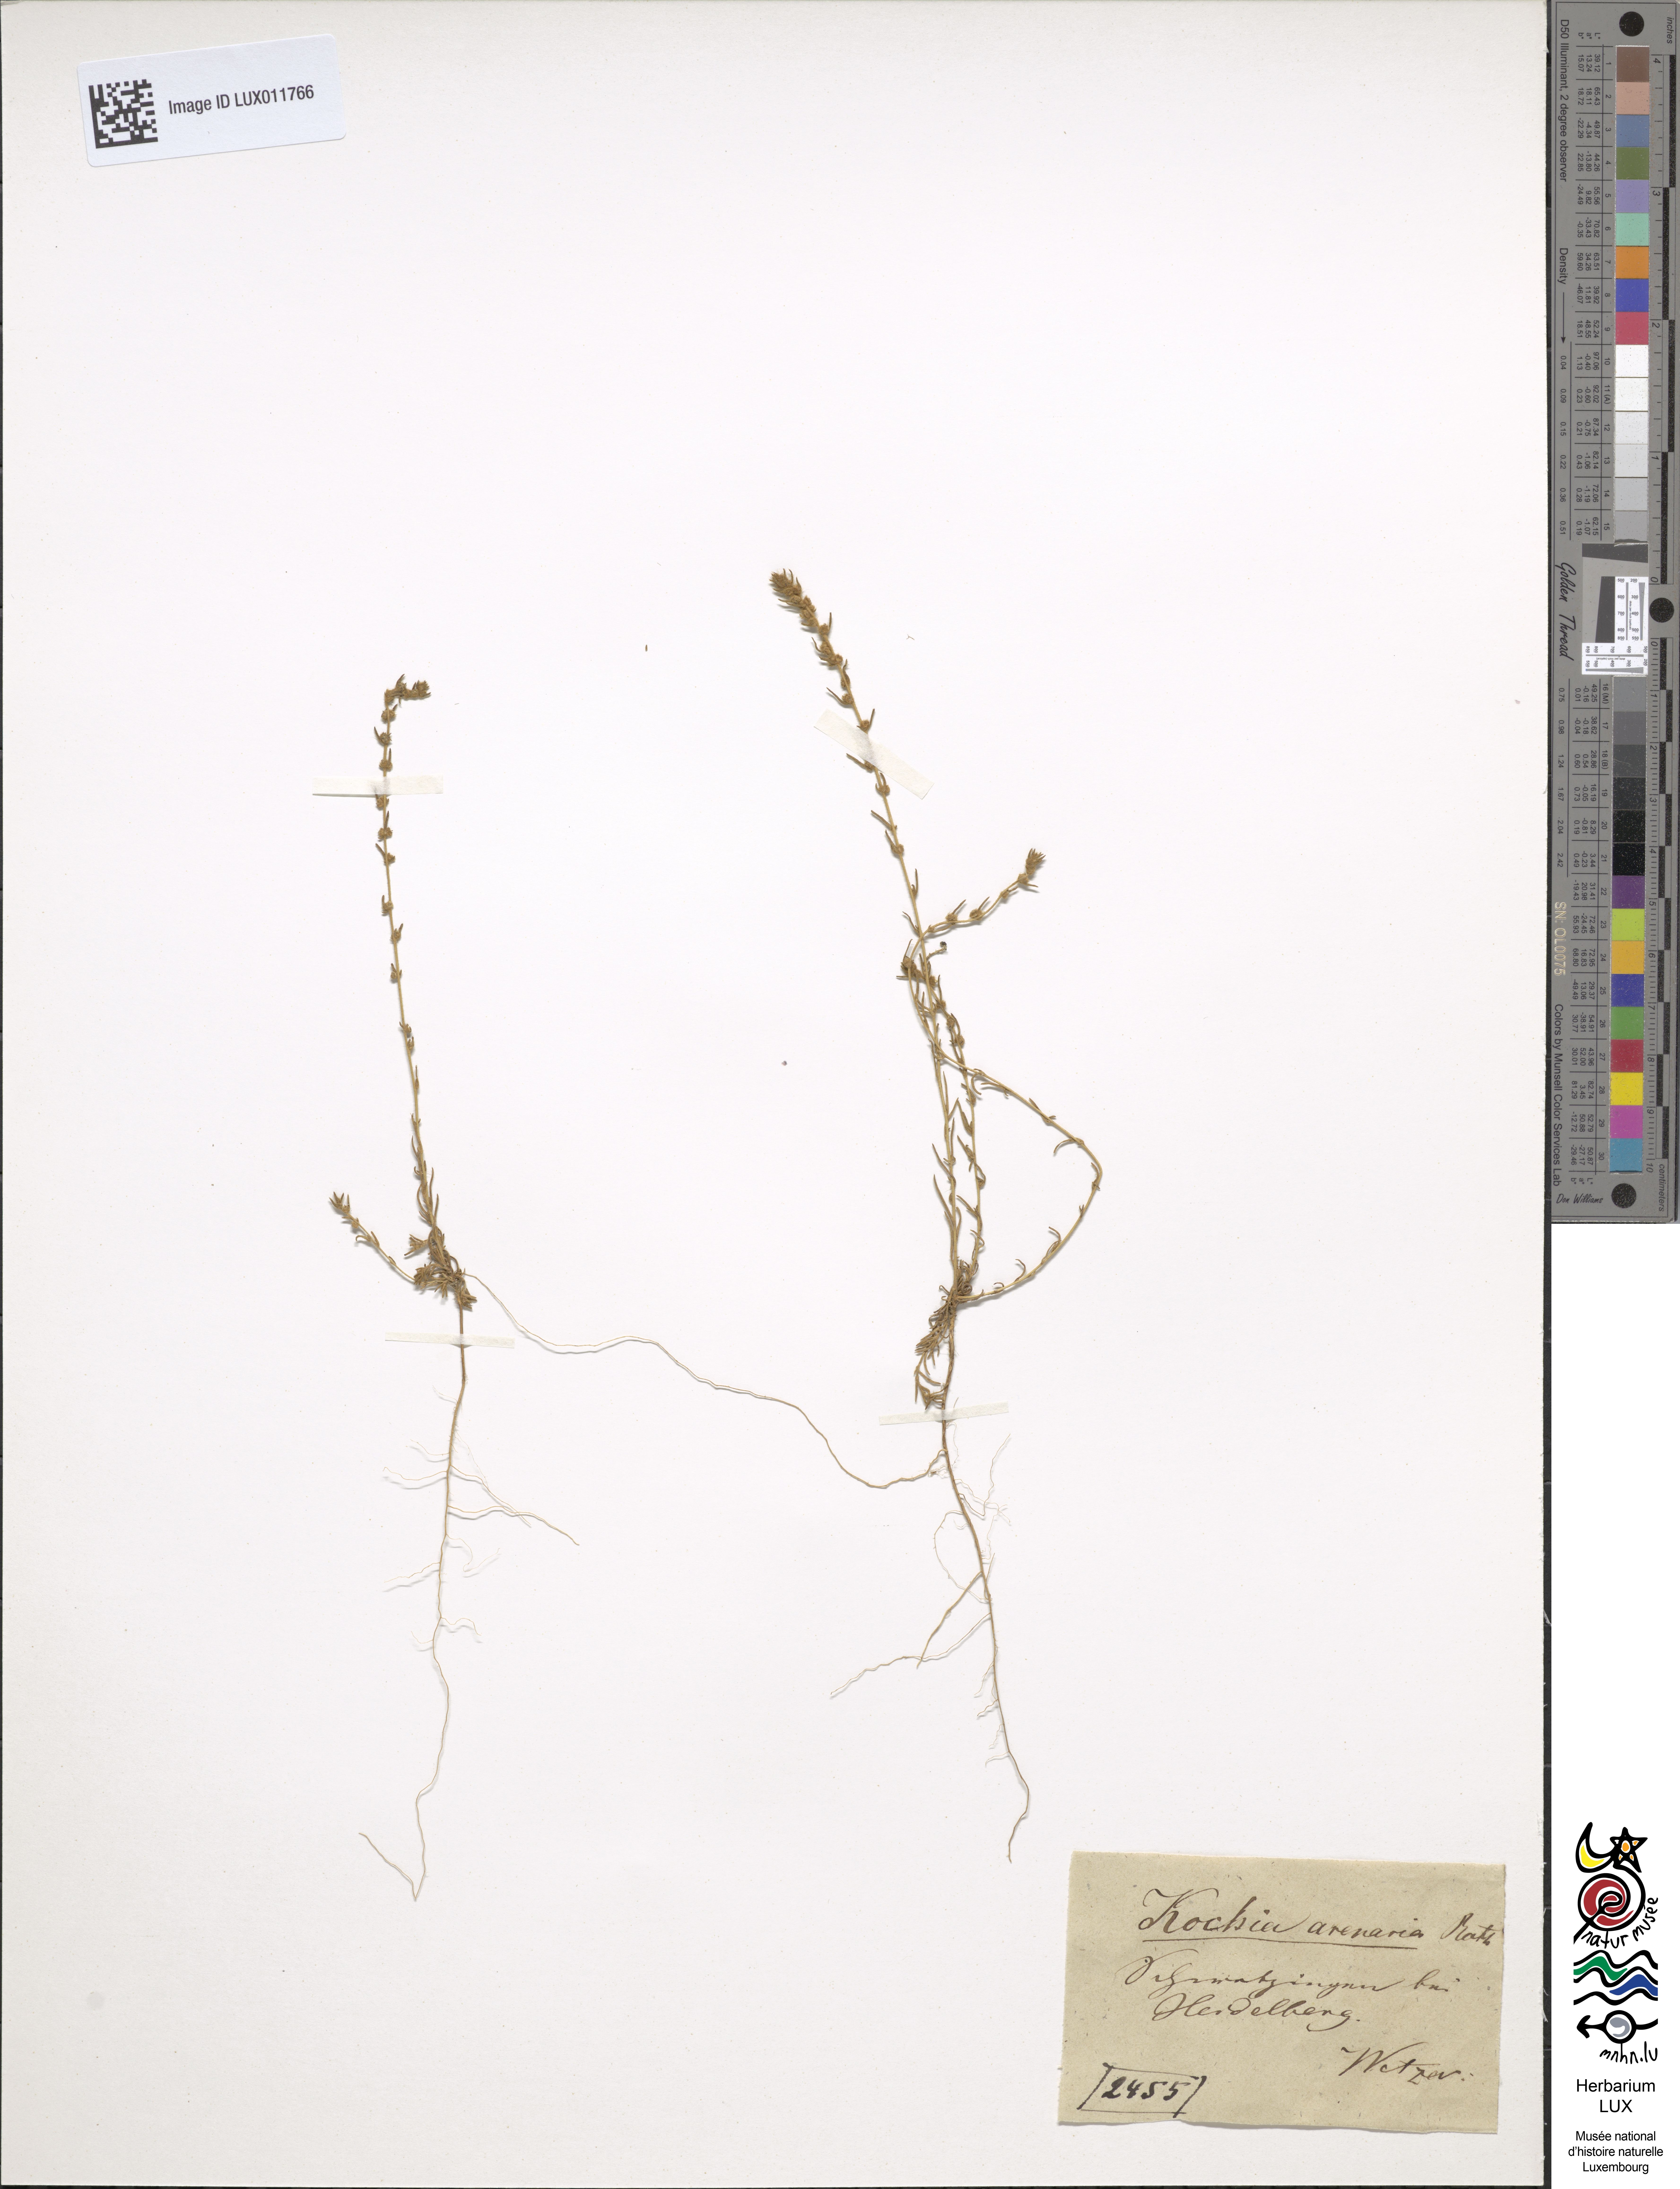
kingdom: Plantae
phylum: Tracheophyta
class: Magnoliopsida
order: Caryophyllales
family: Amaranthaceae
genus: Bassia
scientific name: Bassia laniflora
